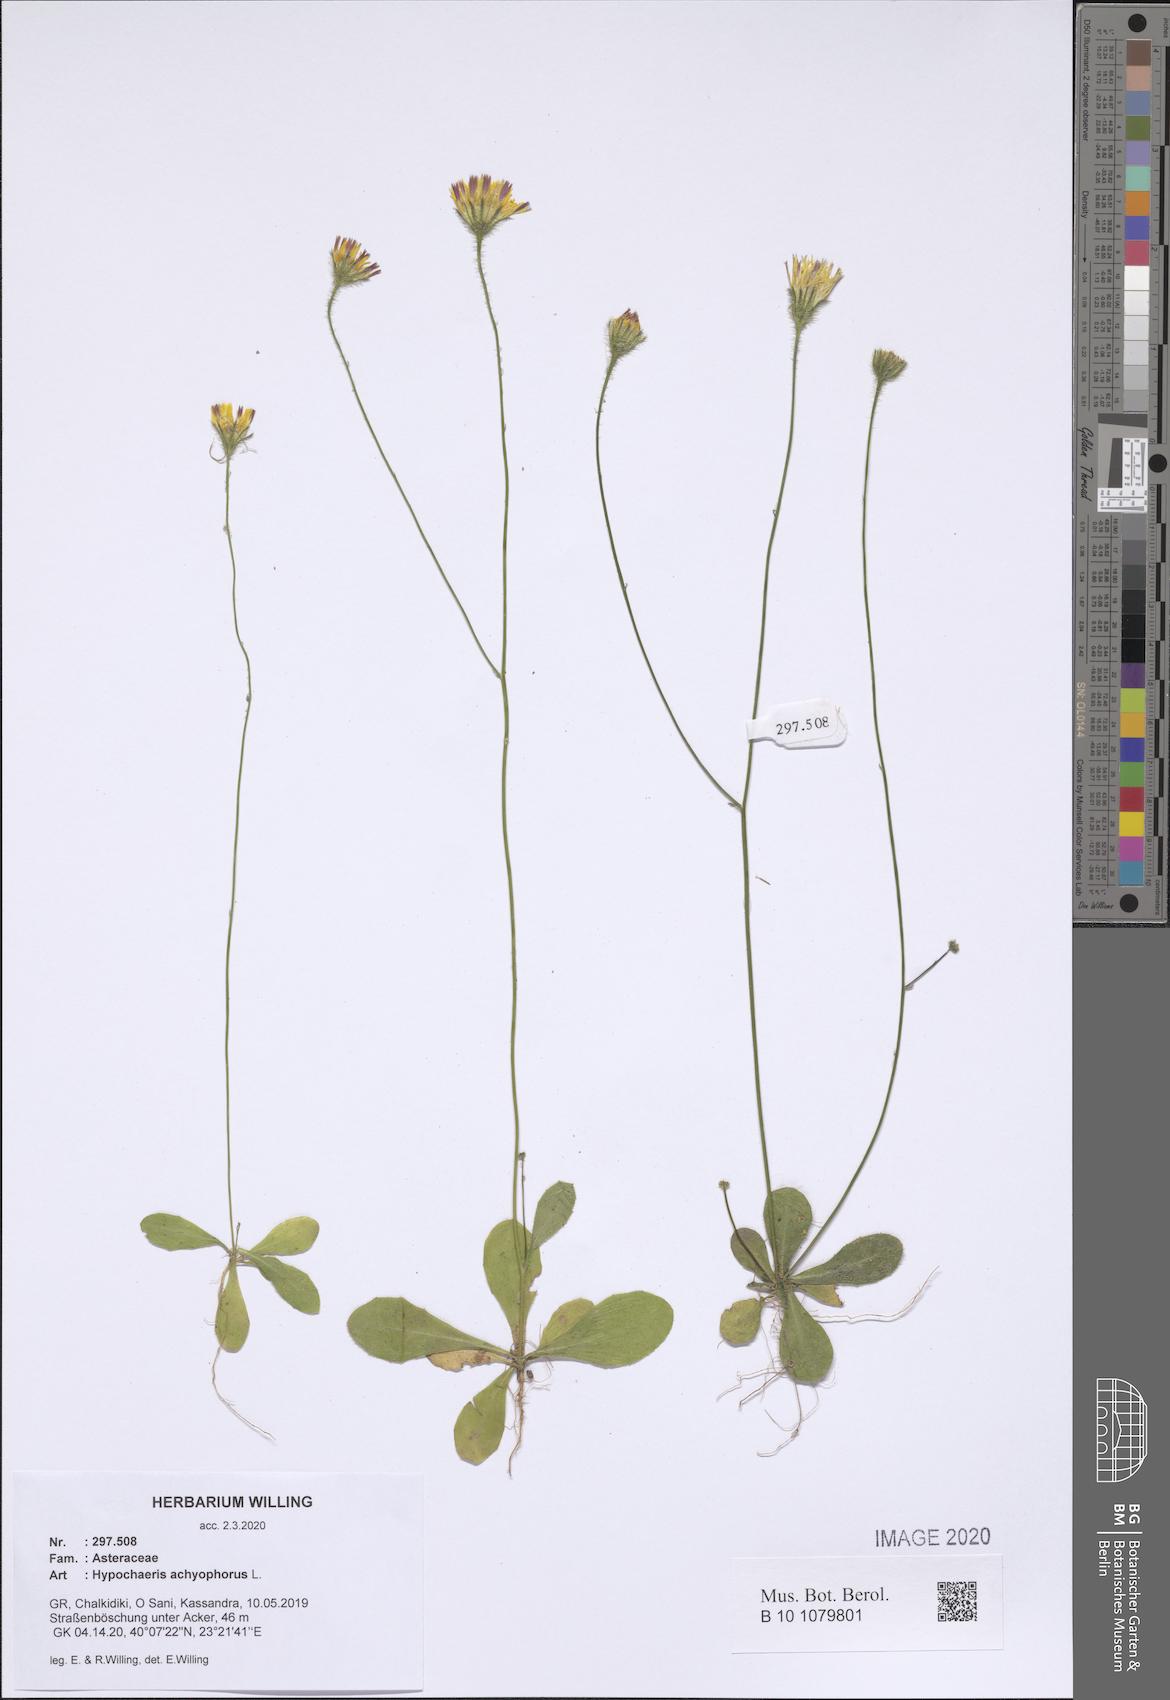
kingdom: Plantae
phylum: Tracheophyta
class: Magnoliopsida
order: Asterales
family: Asteraceae
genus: Achyrophorus
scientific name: Achyrophorus valdesii
